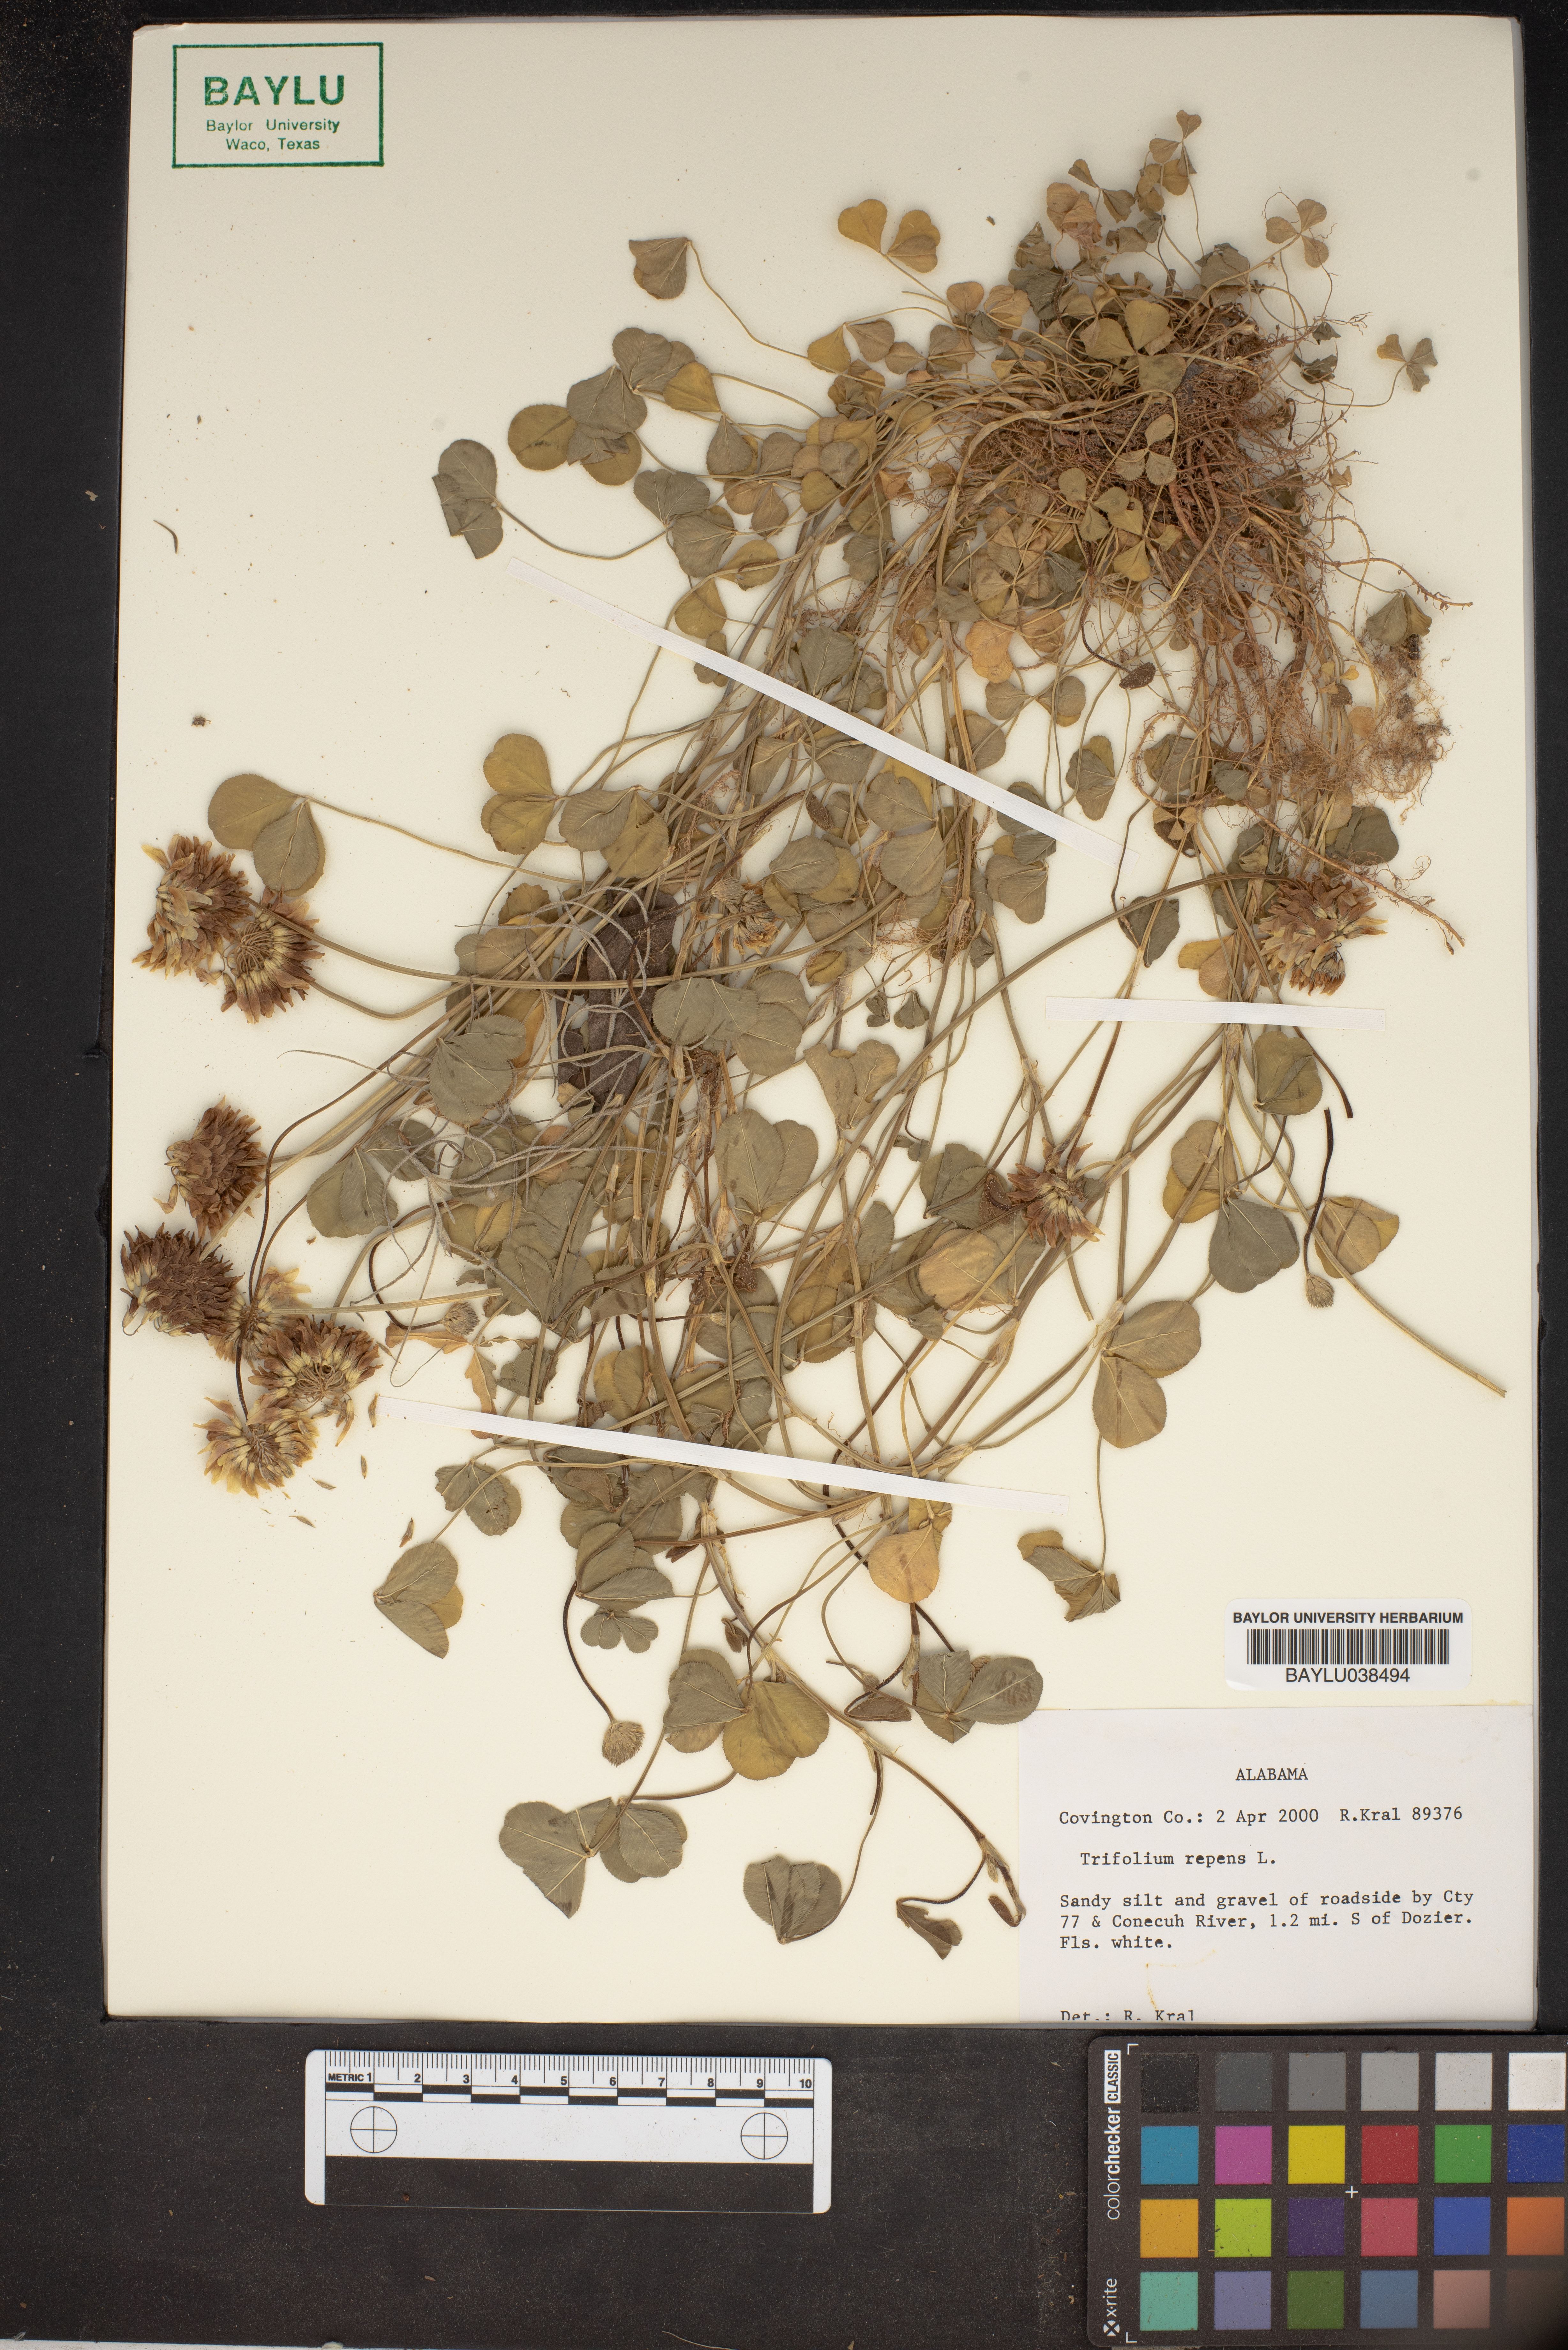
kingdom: Plantae
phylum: Tracheophyta
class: Magnoliopsida
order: Fabales
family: Fabaceae
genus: Trifolium
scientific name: Trifolium repens
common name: White clover
